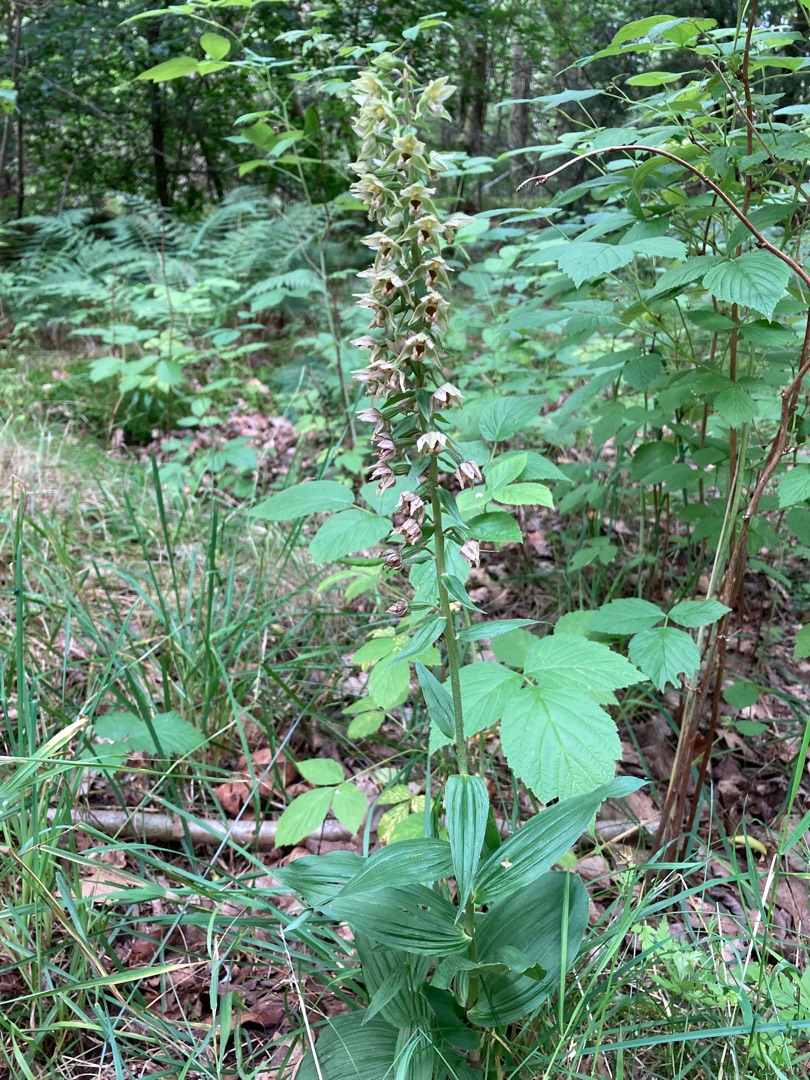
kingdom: Plantae
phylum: Tracheophyta
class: Liliopsida
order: Asparagales
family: Orchidaceae
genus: Epipactis
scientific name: Epipactis helleborine
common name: Skov-hullæbe
